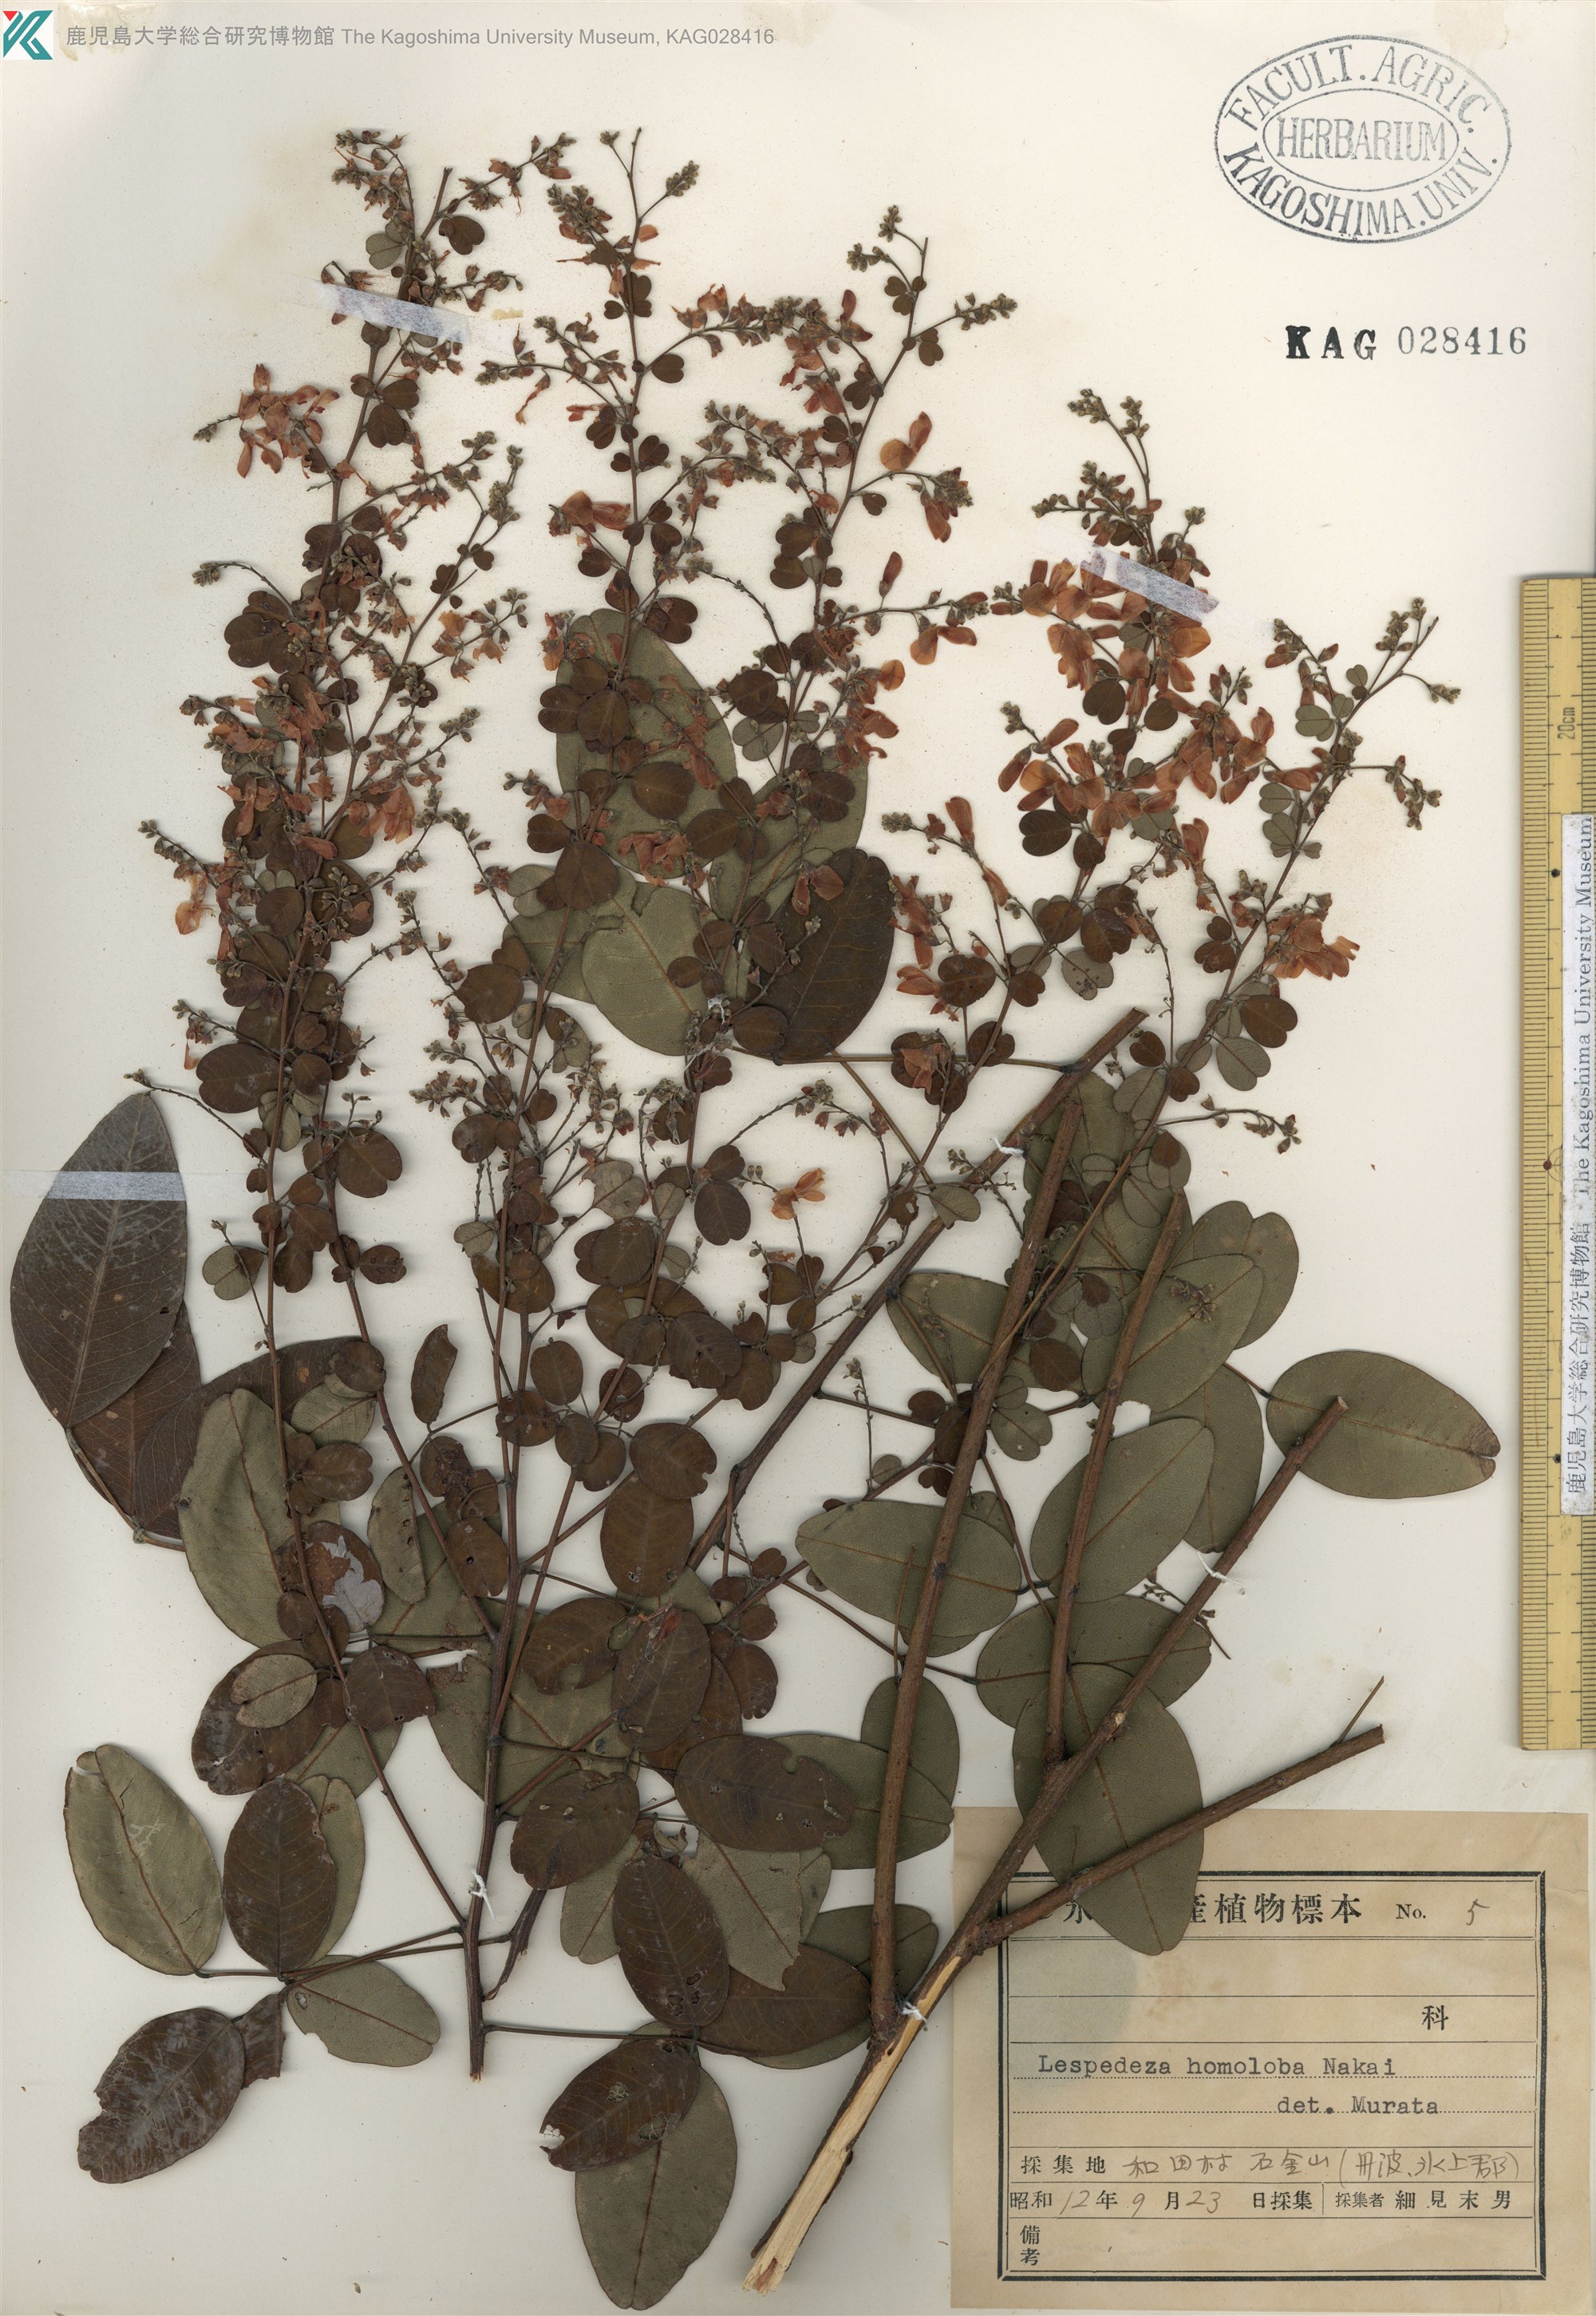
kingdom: Plantae
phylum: Tracheophyta
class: Magnoliopsida
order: Fabales
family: Fabaceae
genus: Lespedeza
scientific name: Lespedeza homoloba
